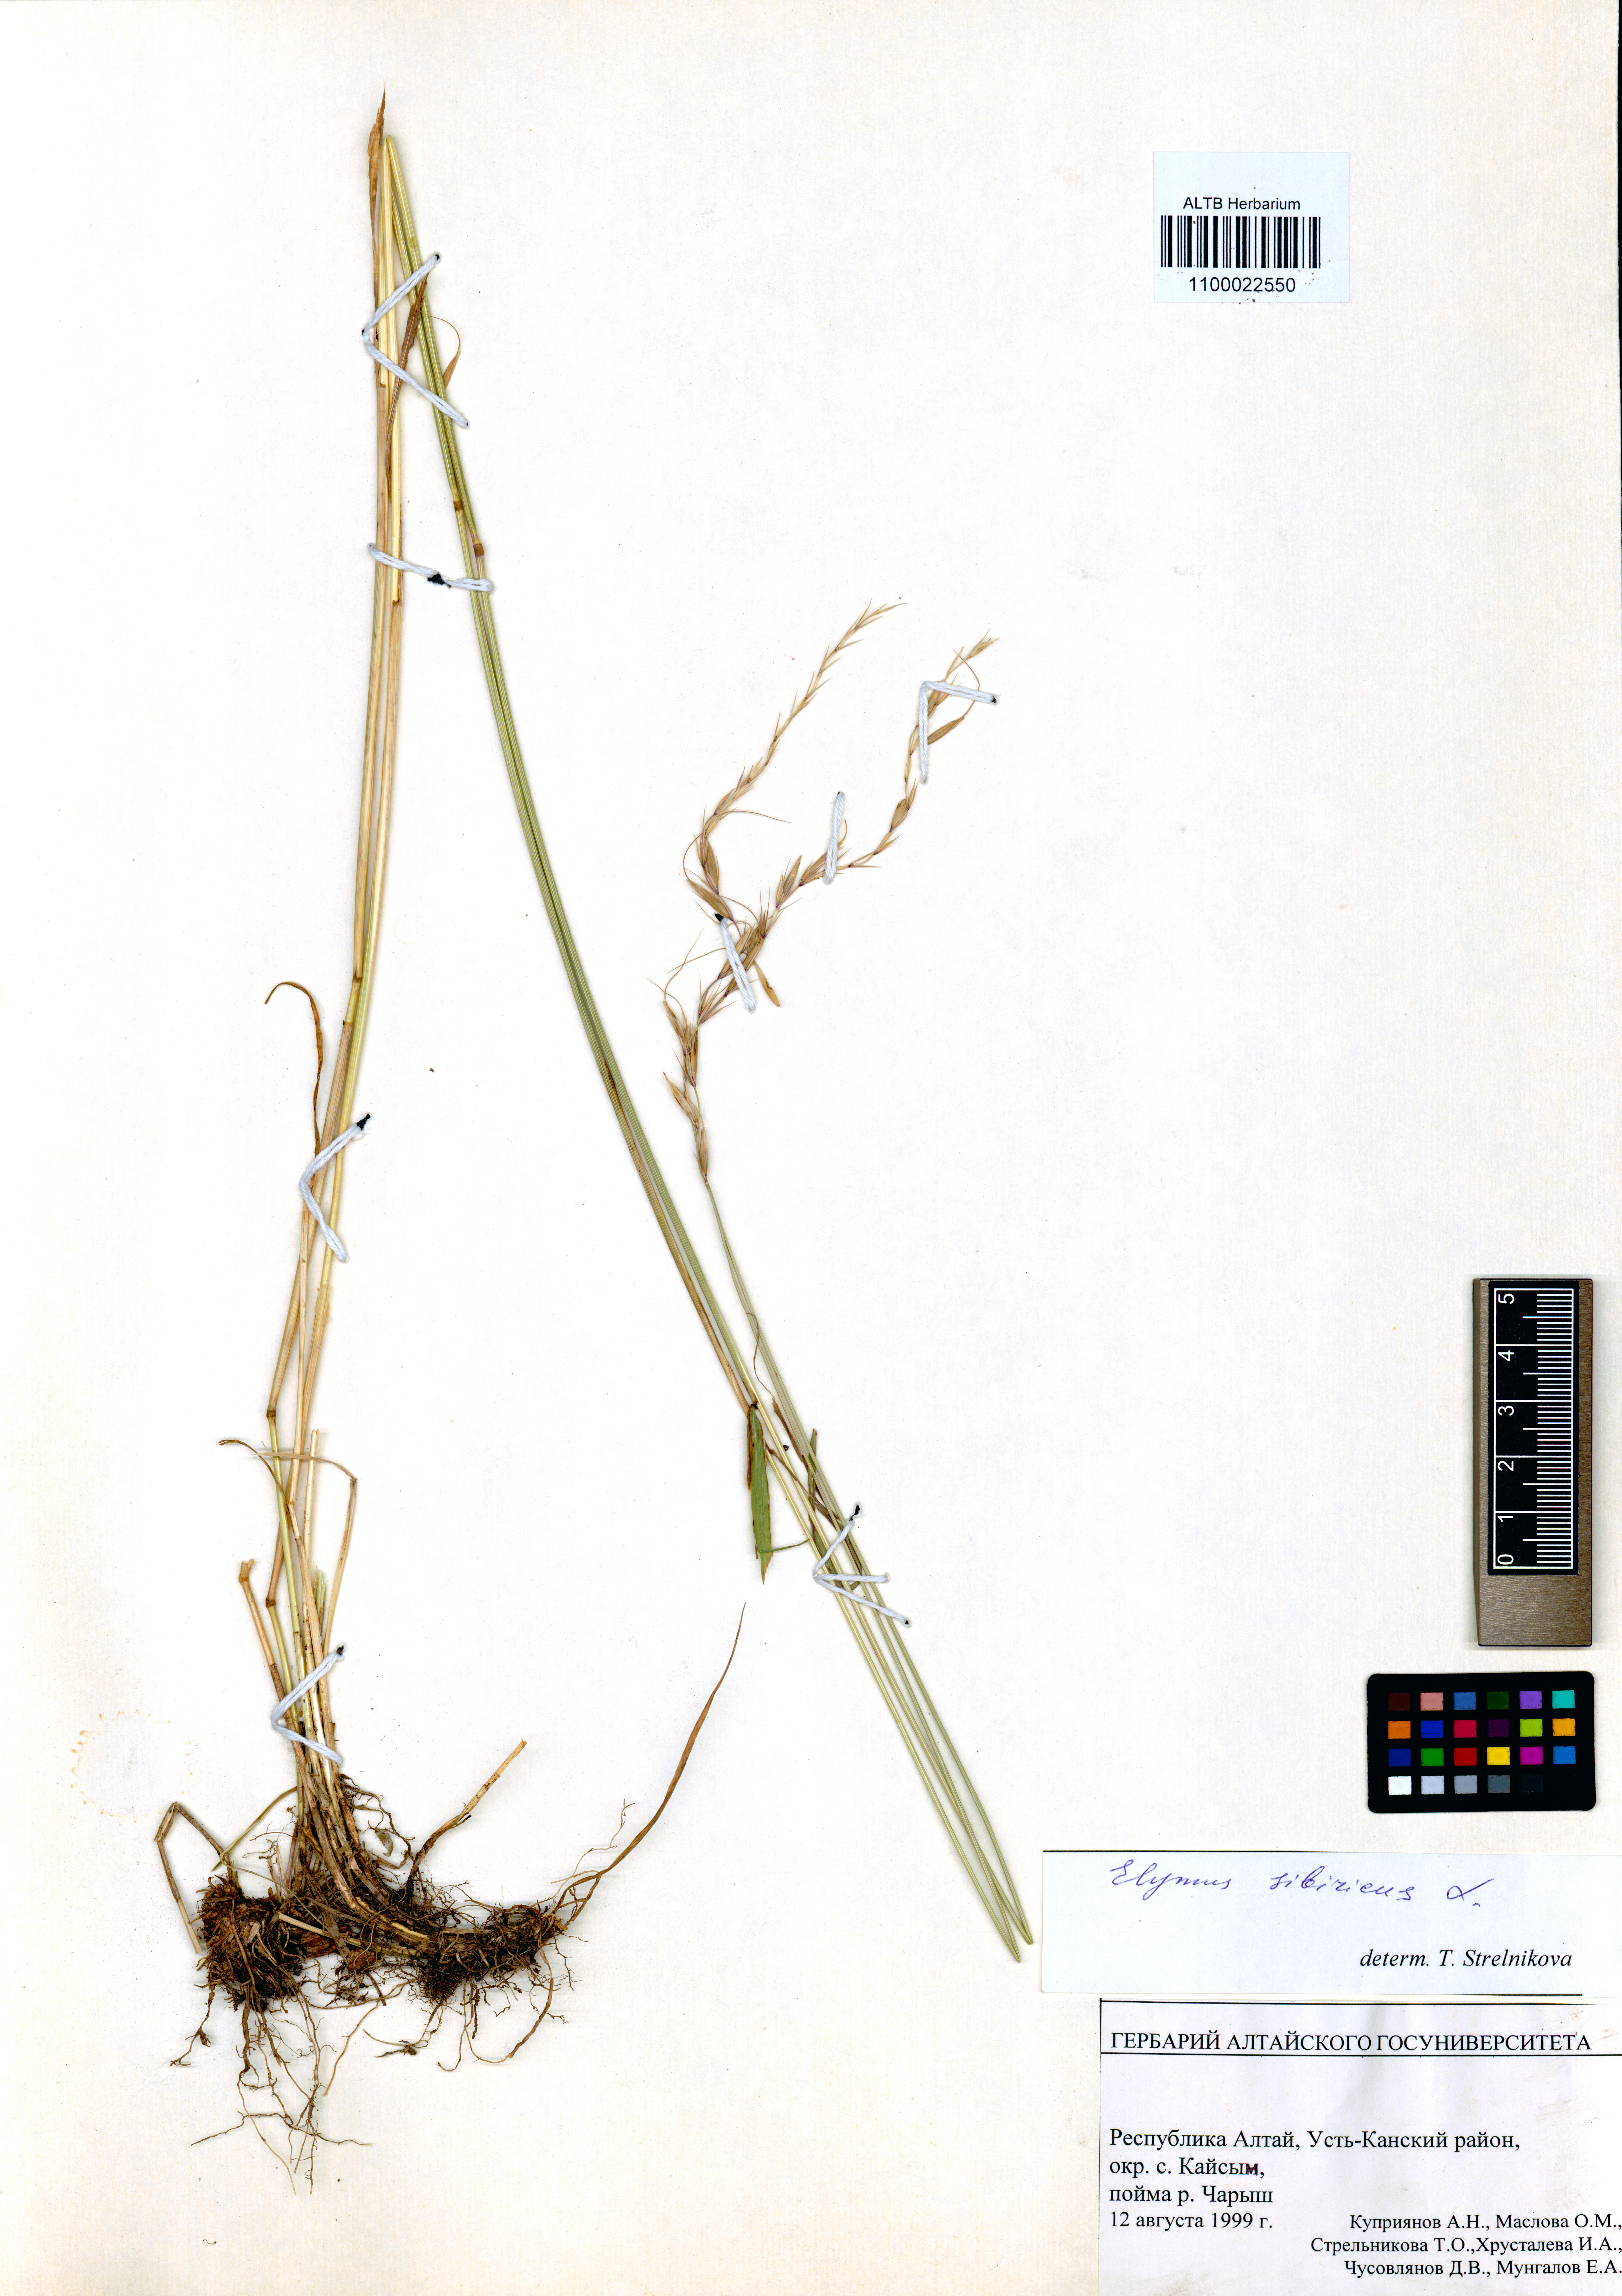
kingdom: Plantae
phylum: Tracheophyta
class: Liliopsida
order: Poales
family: Poaceae
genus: Elymus
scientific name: Elymus sibiricus
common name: Siberian wildrye
